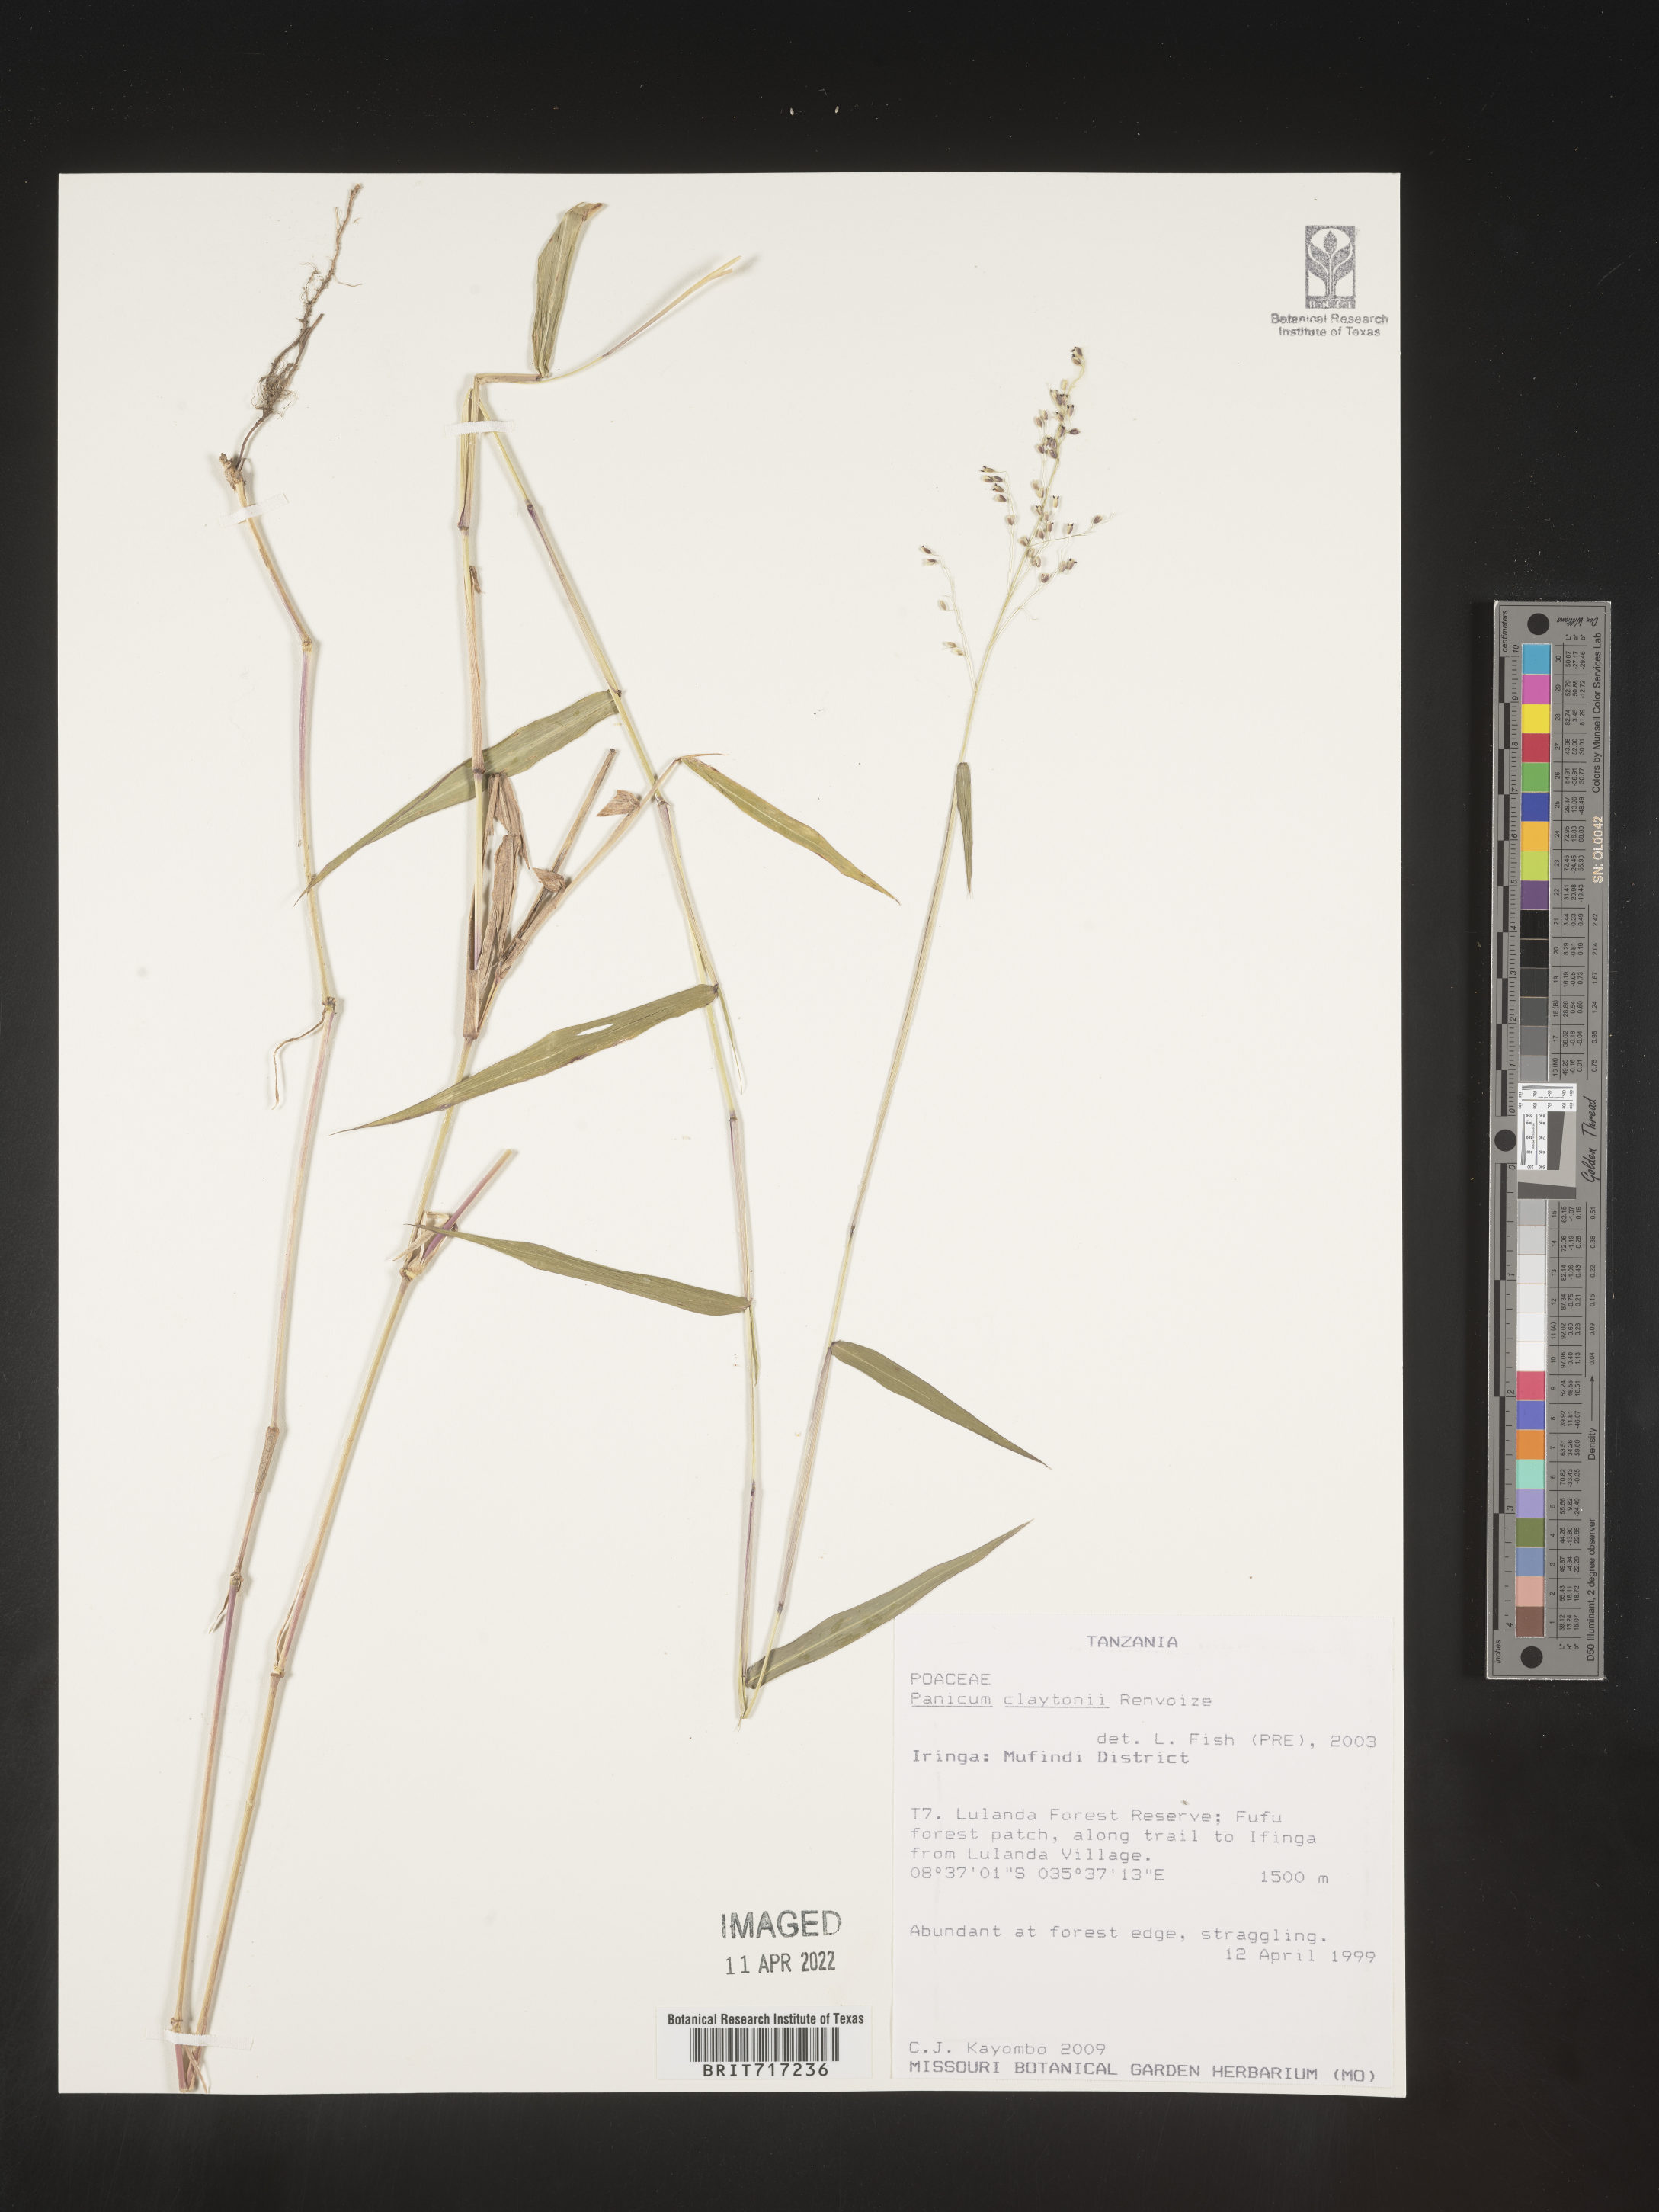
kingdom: Plantae
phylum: Tracheophyta
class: Liliopsida
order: Poales
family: Poaceae
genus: Panicum
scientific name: Panicum
